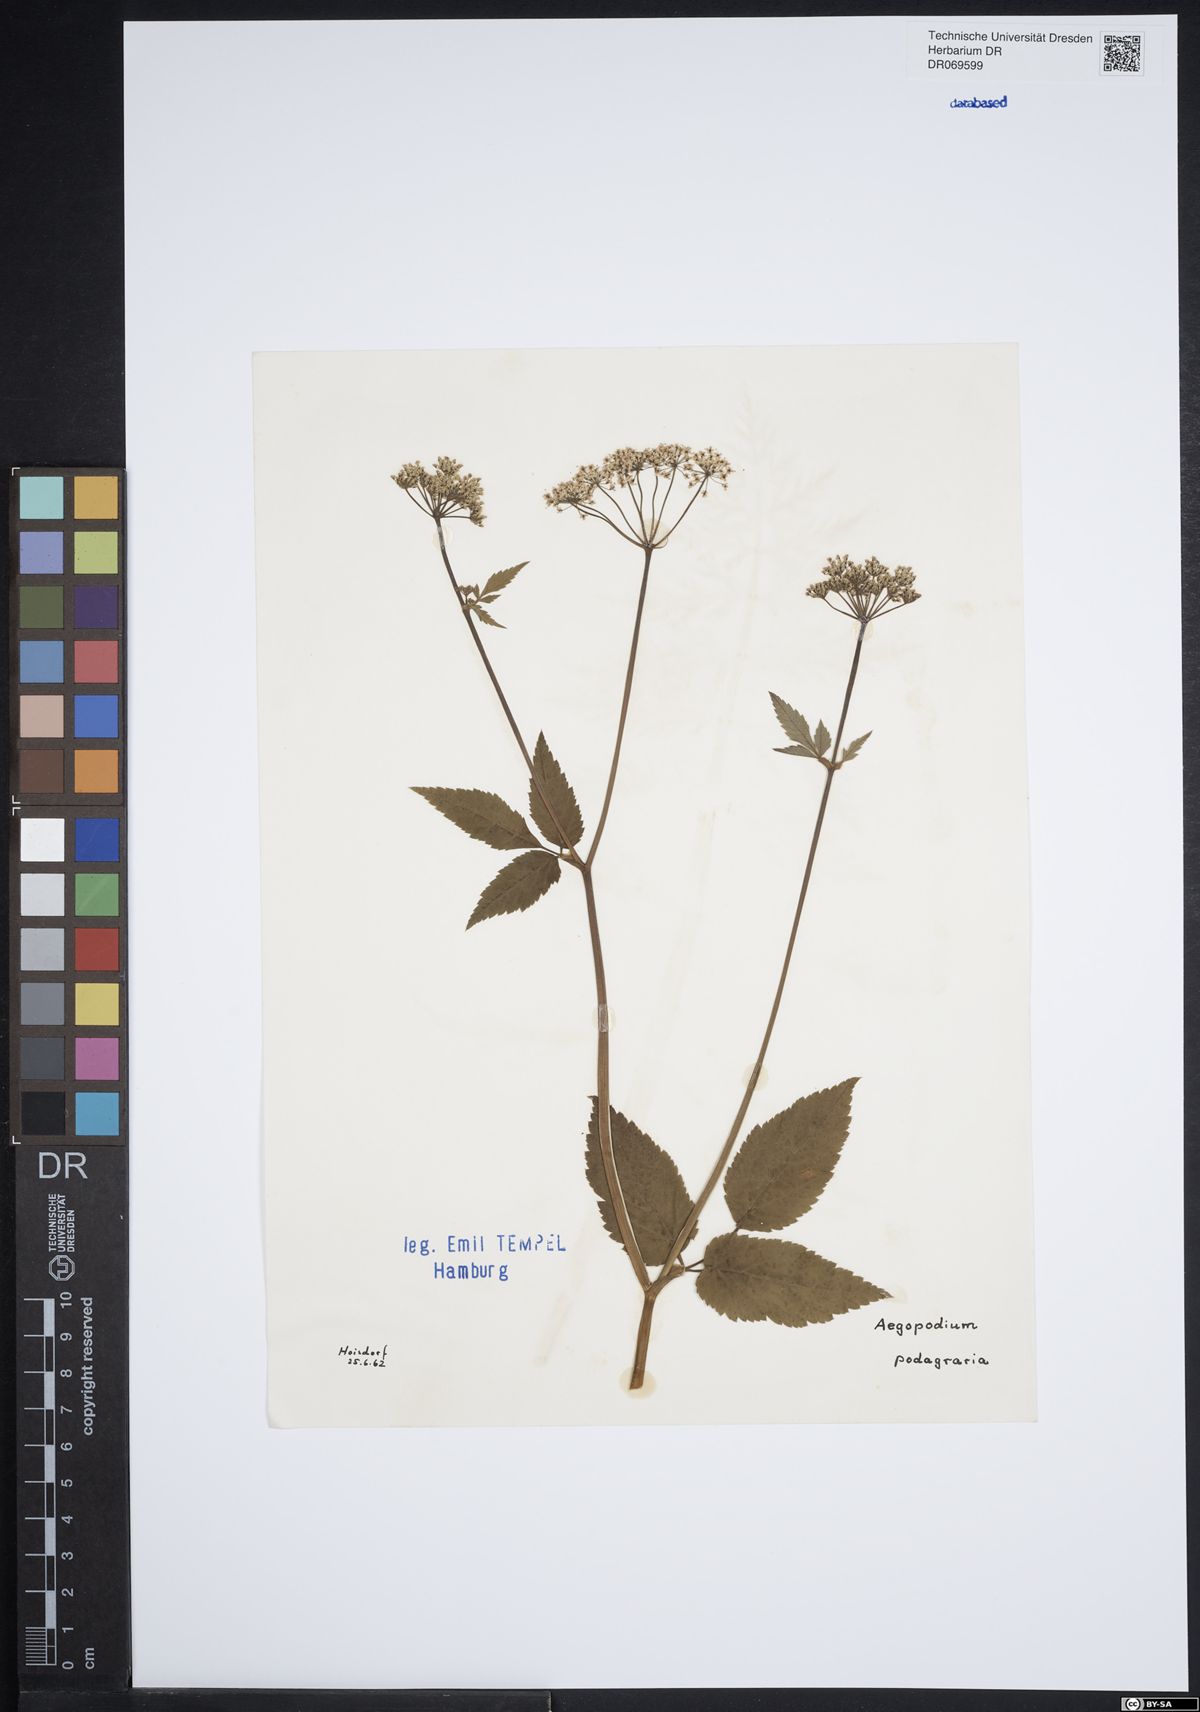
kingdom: Plantae
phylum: Tracheophyta
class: Magnoliopsida
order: Apiales
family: Apiaceae
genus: Aegopodium
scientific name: Aegopodium podagraria
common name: Ground-elder
